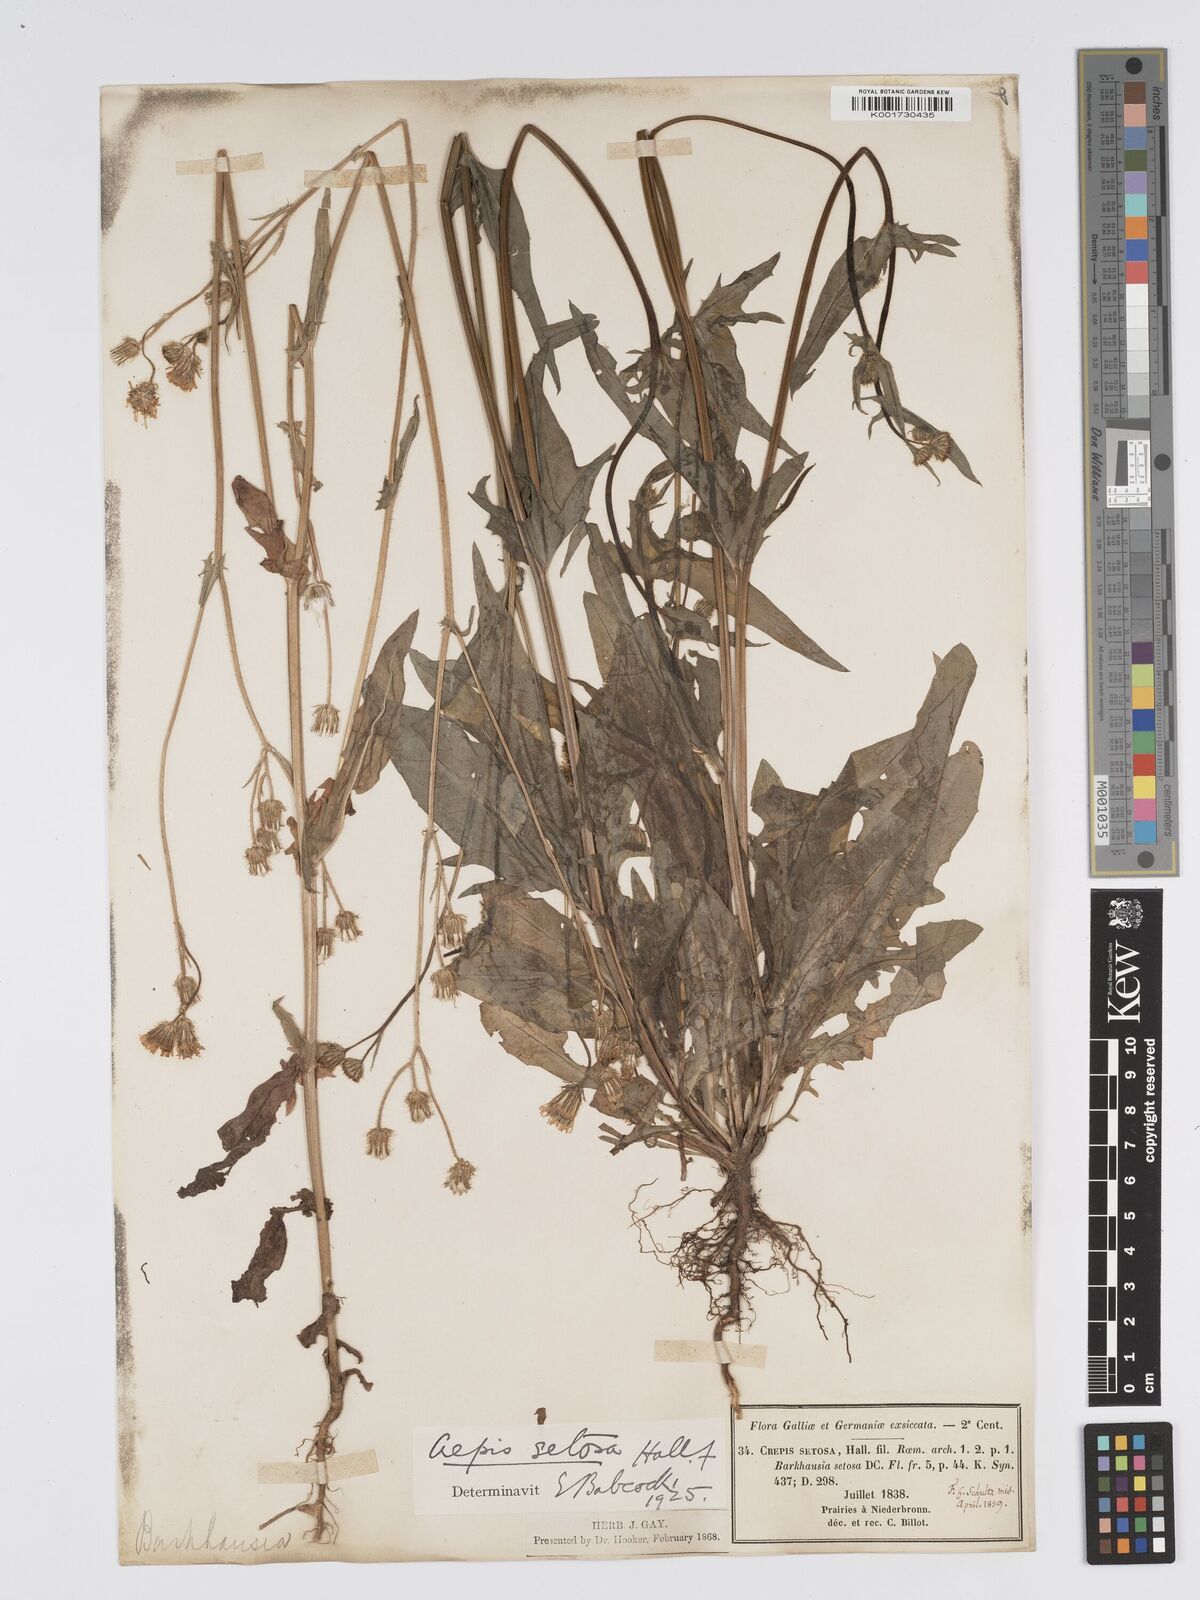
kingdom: Plantae
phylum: Tracheophyta
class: Magnoliopsida
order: Asterales
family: Asteraceae
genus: Crepis
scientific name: Crepis setosa
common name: Bristly hawk's-beard
